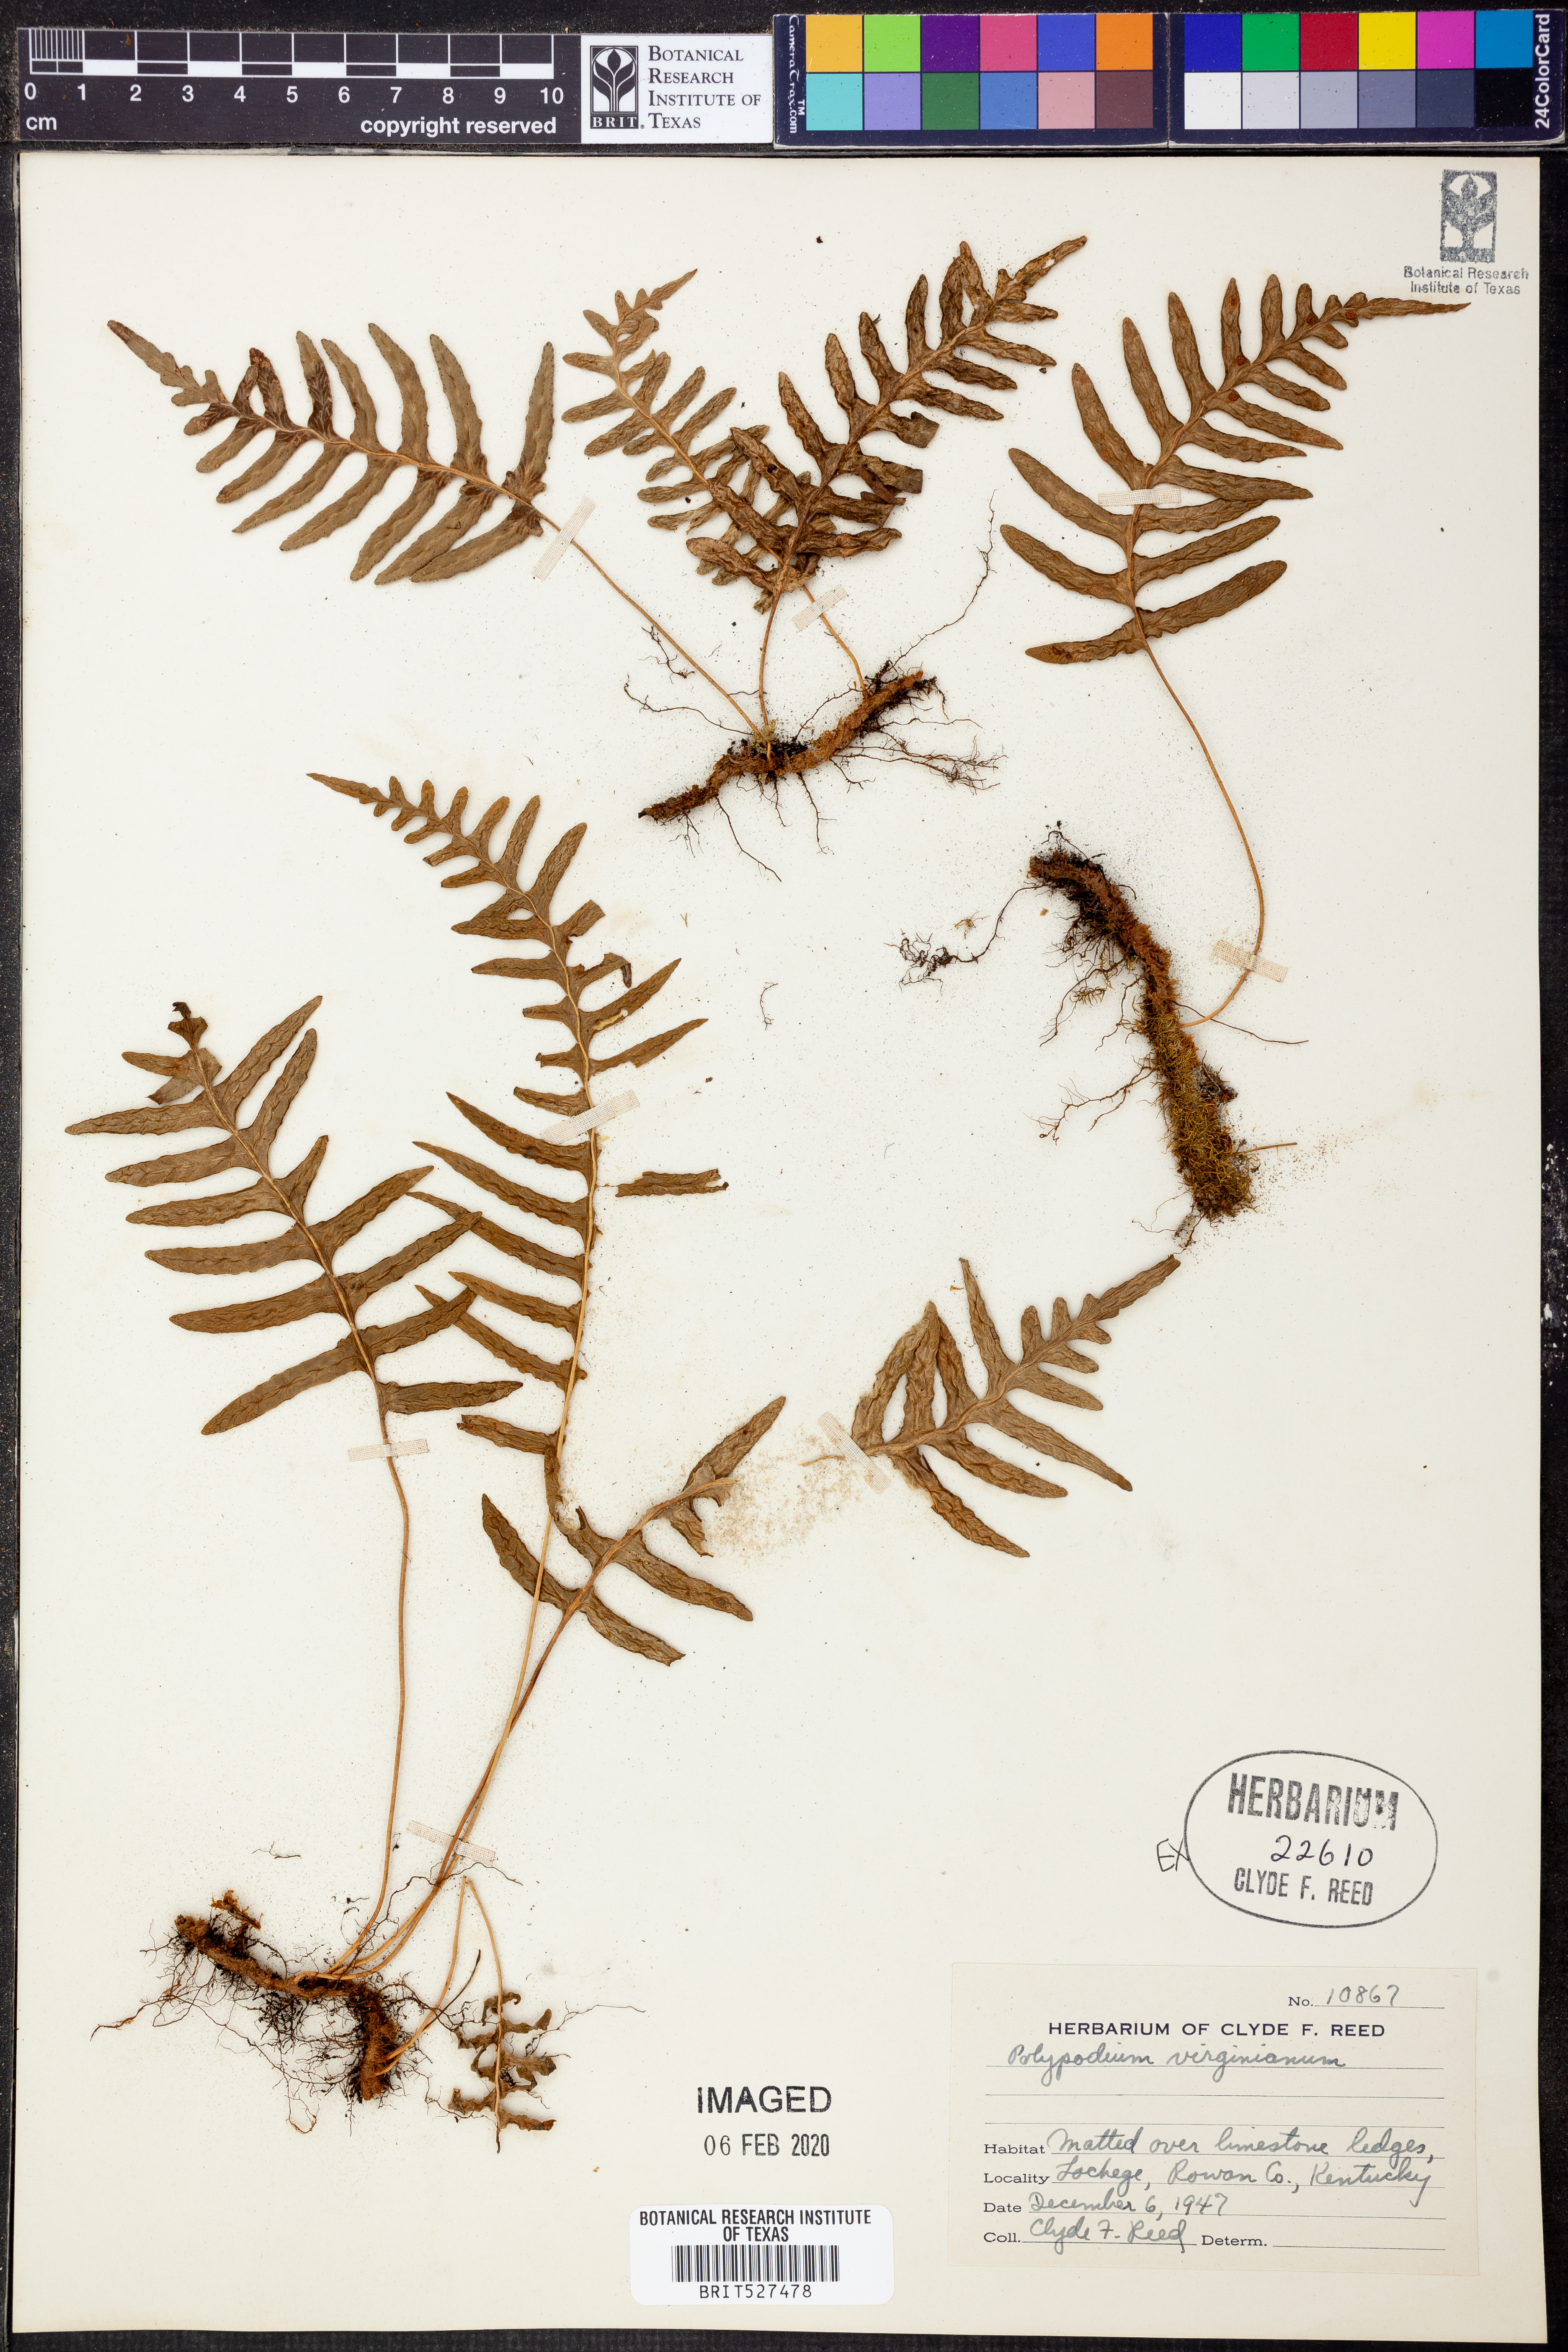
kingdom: Plantae
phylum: Tracheophyta
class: Polypodiopsida
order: Polypodiales
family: Polypodiaceae
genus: Polypodium
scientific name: Polypodium virginianum
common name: American wall fern
